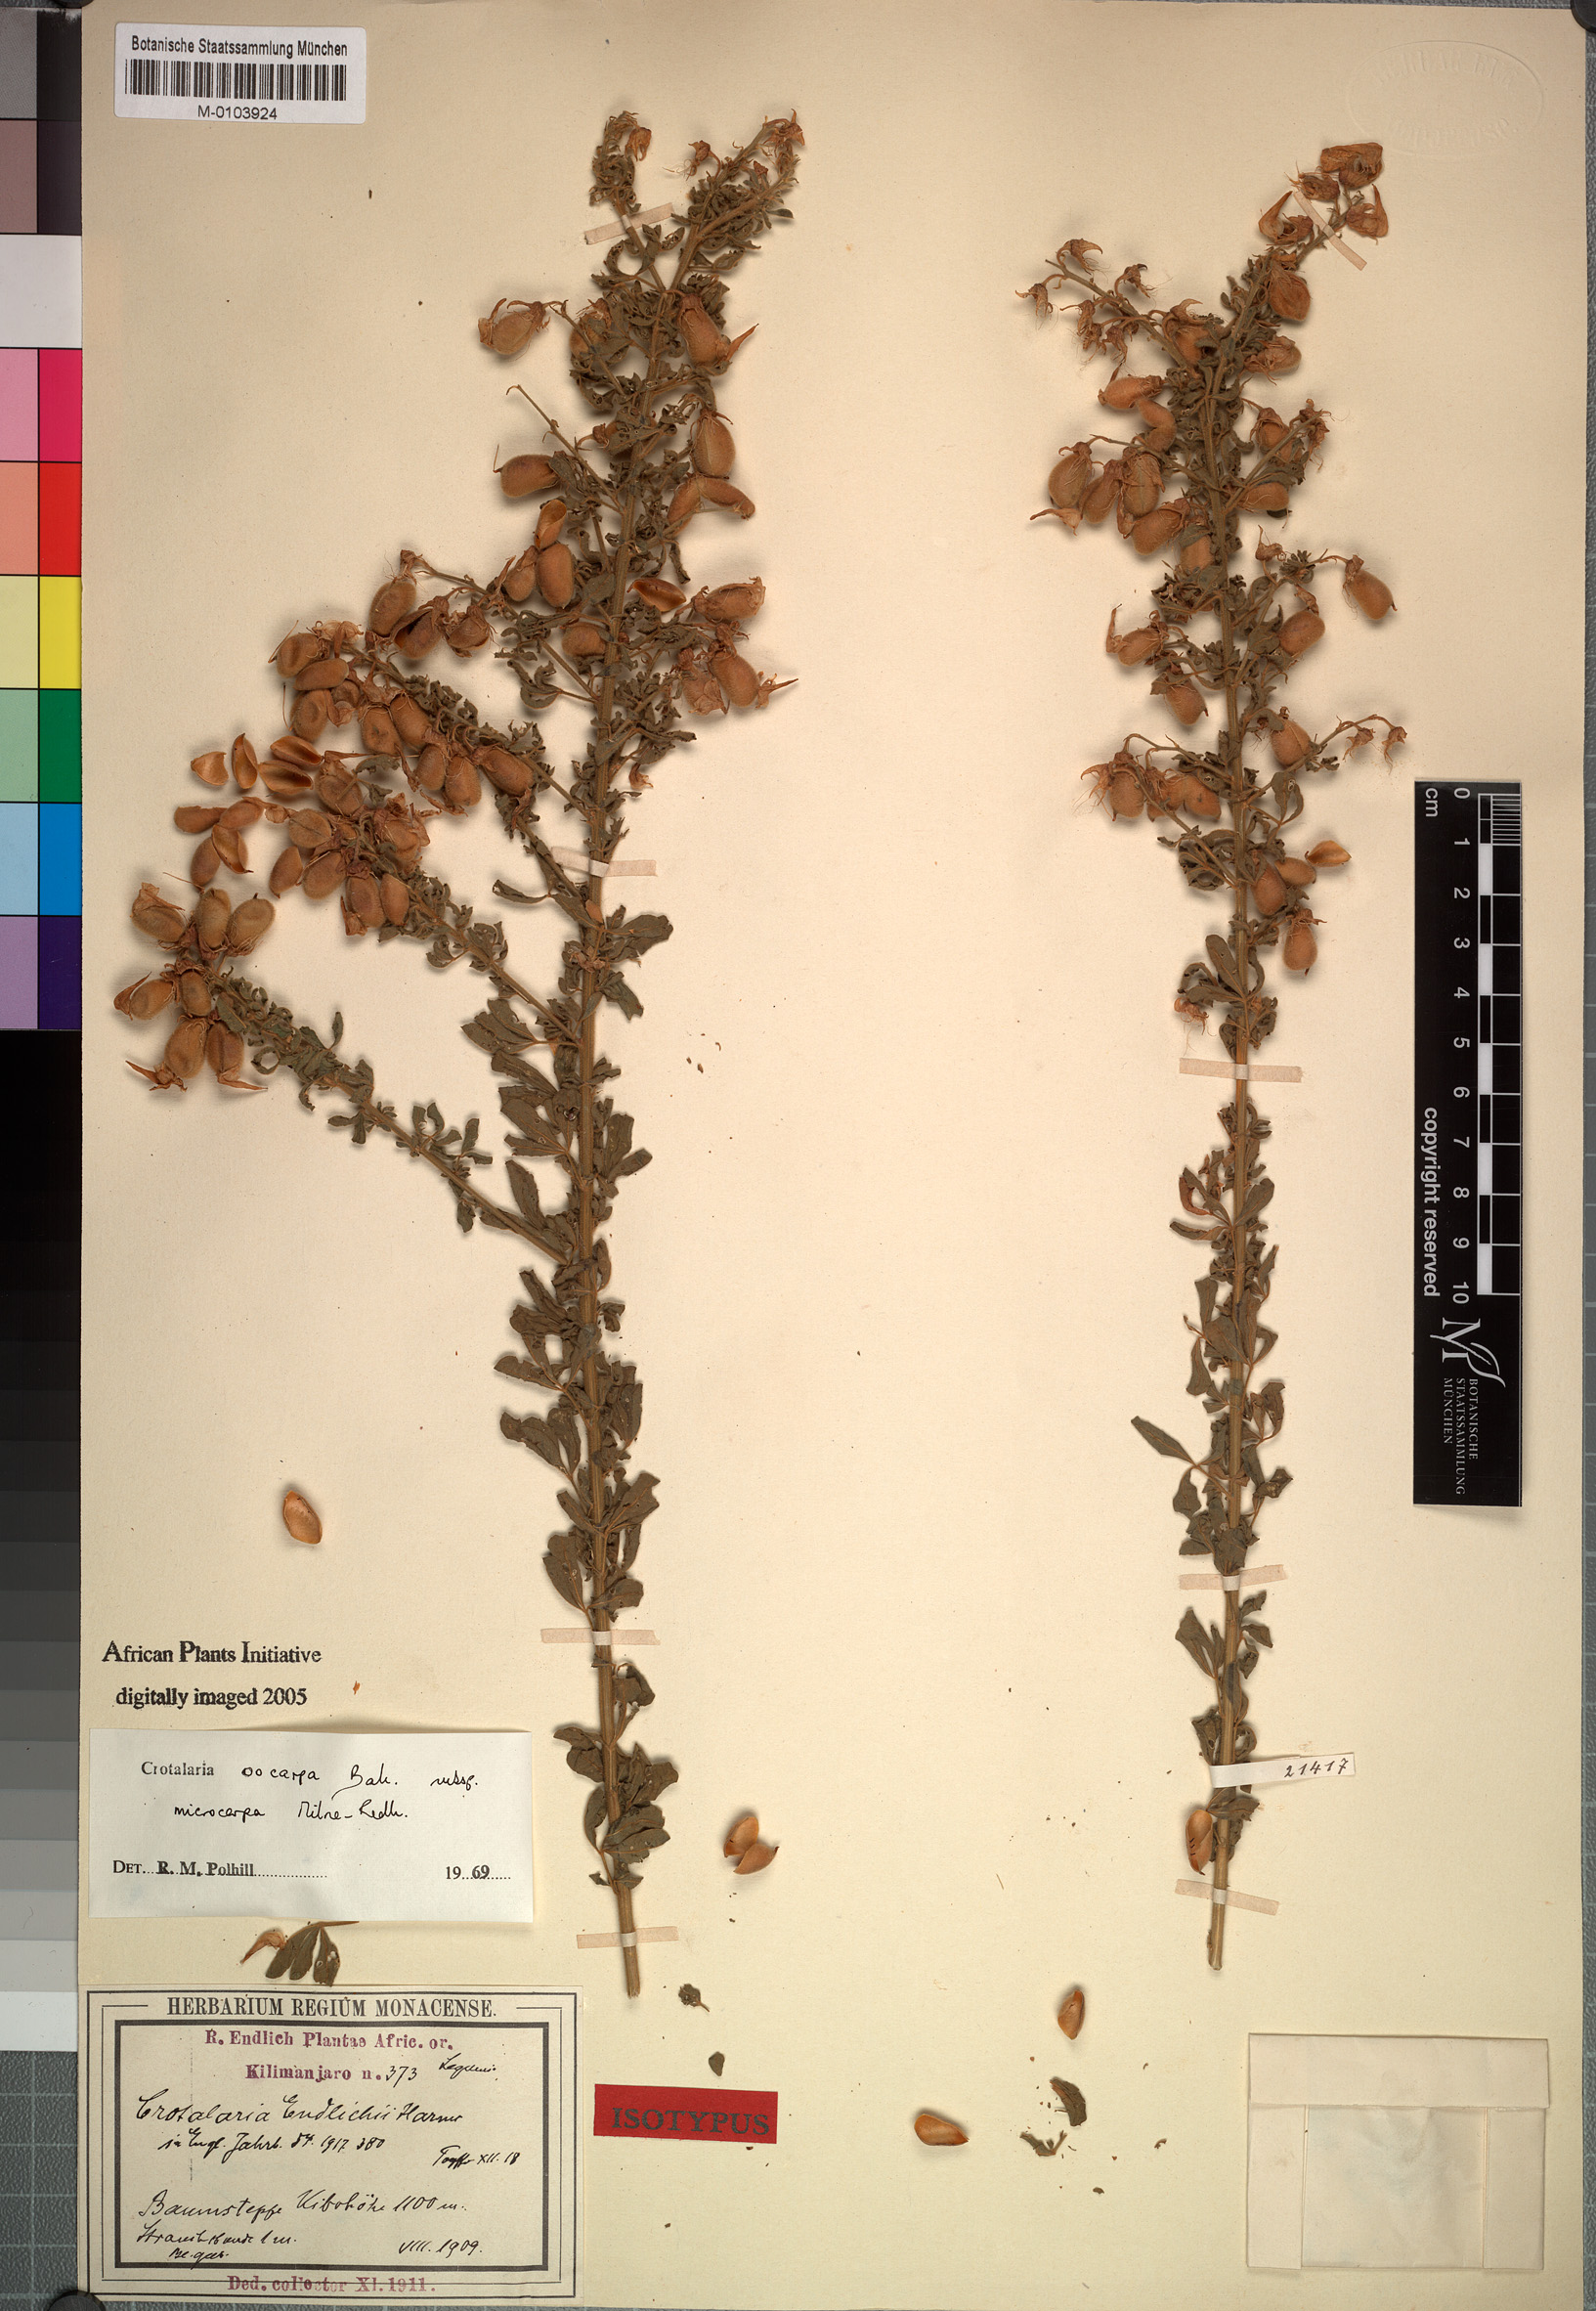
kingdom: Plantae
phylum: Tracheophyta
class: Magnoliopsida
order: Fabales
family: Fabaceae
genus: Crotalaria
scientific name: Crotalaria oocarpa
